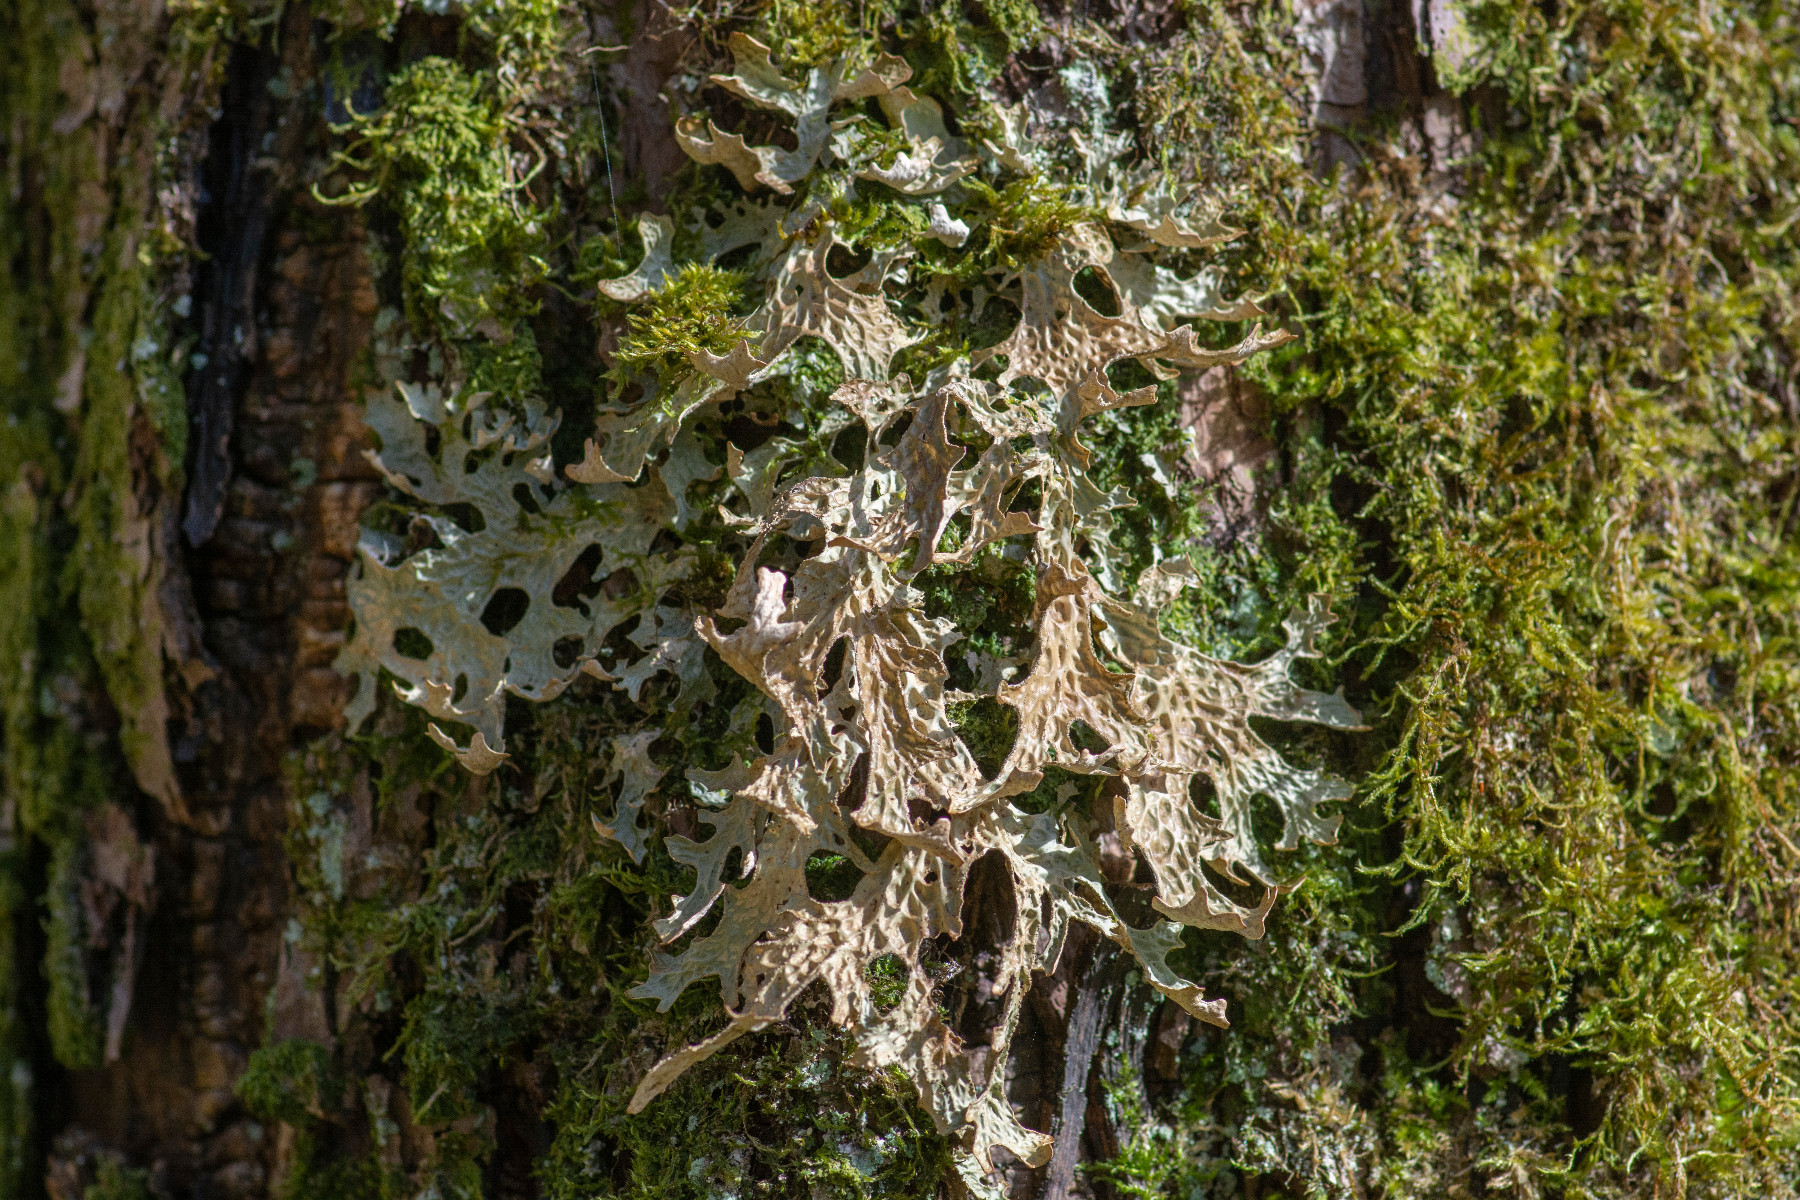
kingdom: Fungi
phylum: Ascomycota
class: Lecanoromycetes
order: Peltigerales
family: Lobariaceae
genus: Lobaria
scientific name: Lobaria pulmonaria
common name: almindelig lungelav
